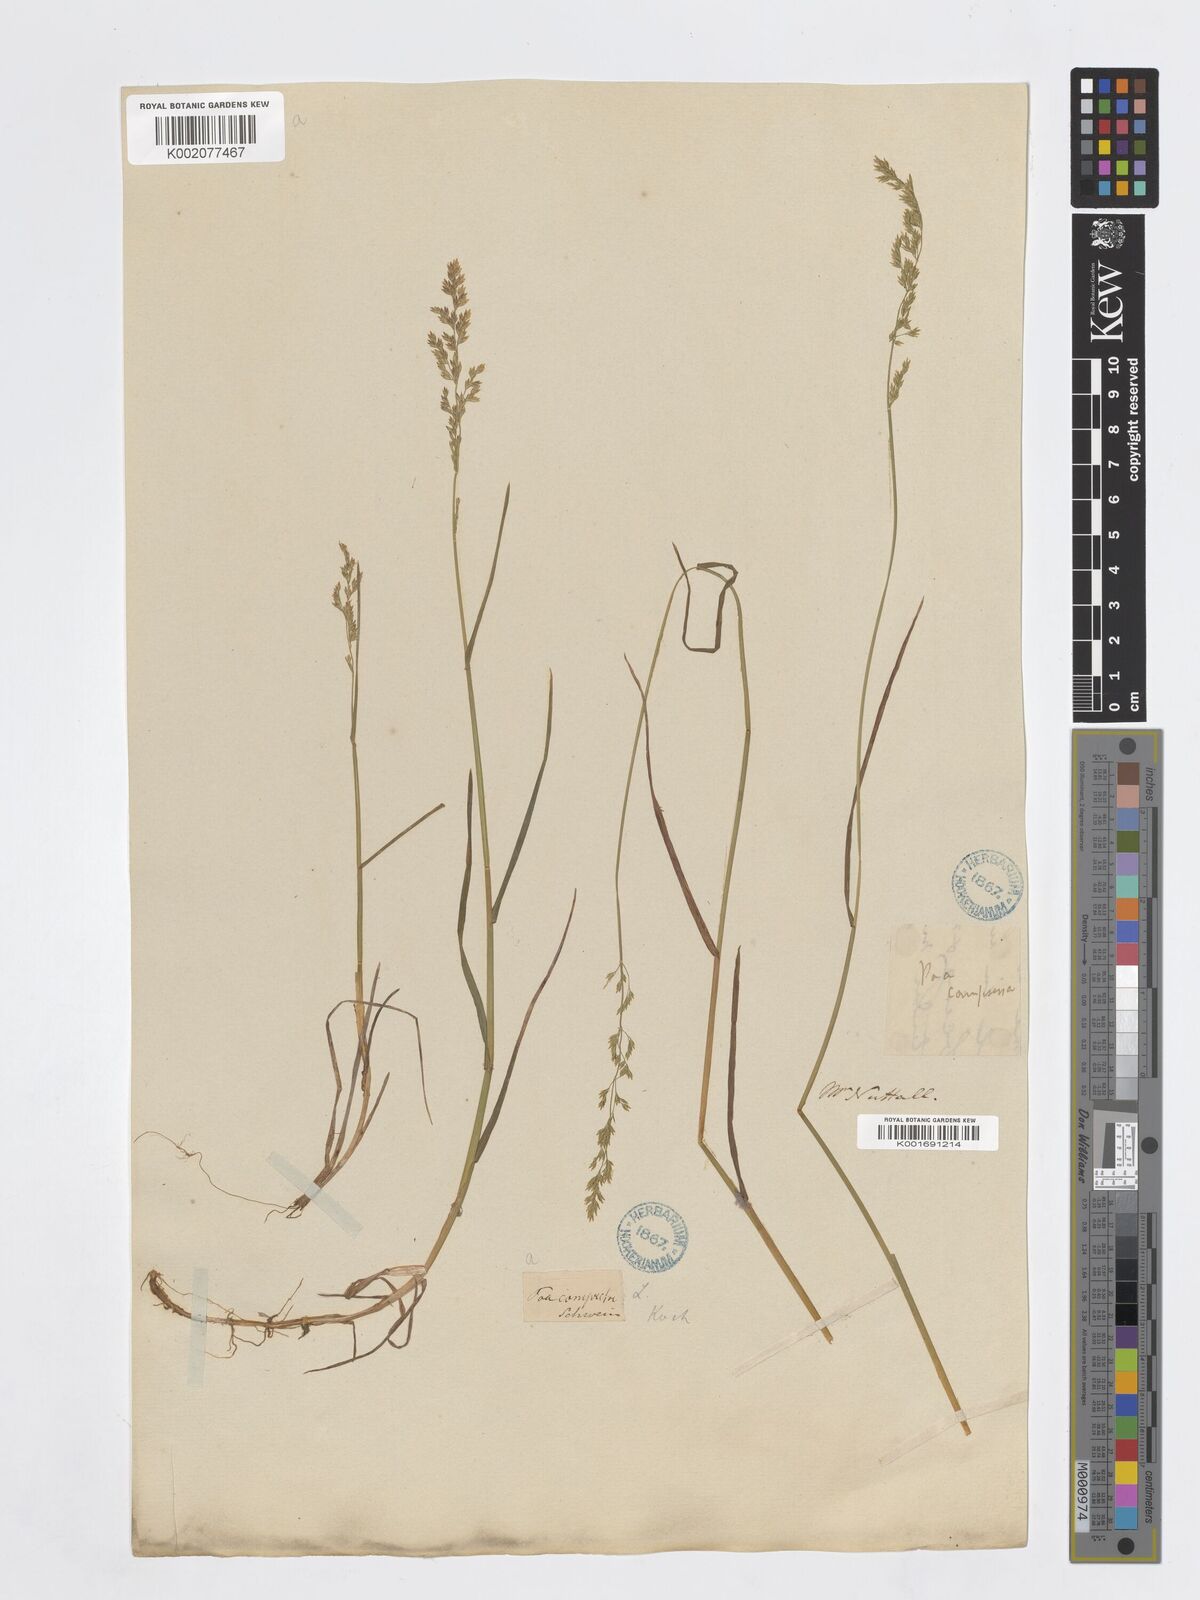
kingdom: Plantae
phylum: Tracheophyta
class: Liliopsida
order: Poales
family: Poaceae
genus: Poa
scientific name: Poa compressa
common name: Canada bluegrass
